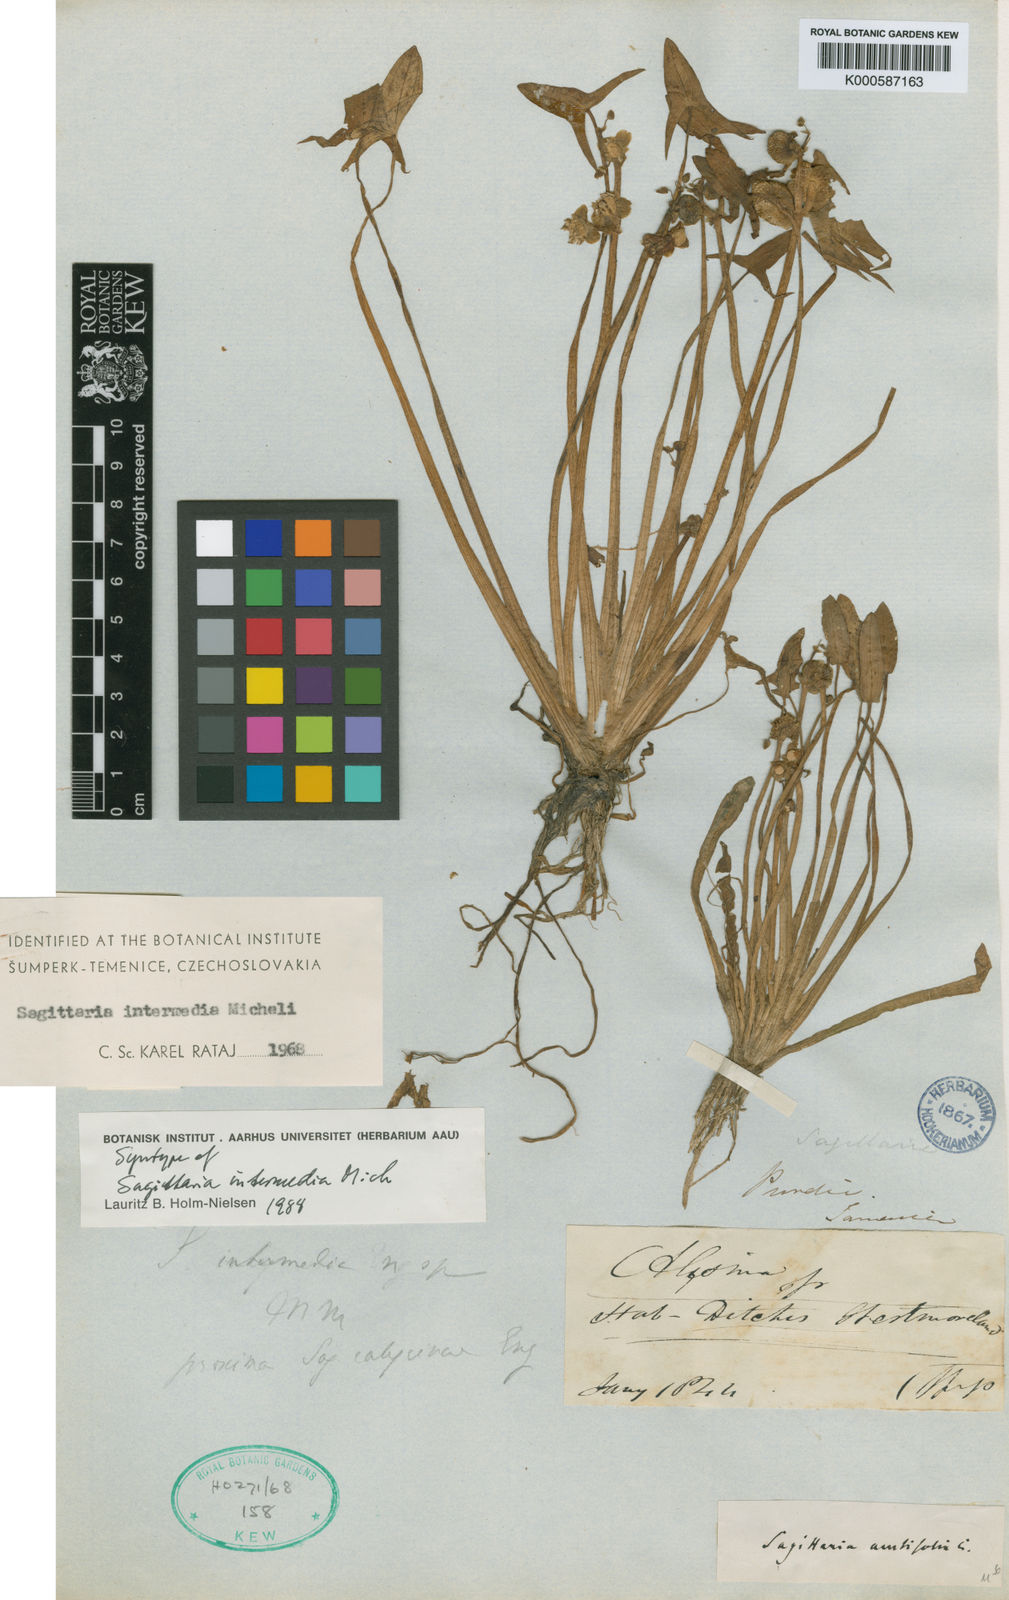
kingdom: Plantae
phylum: Tracheophyta
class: Liliopsida
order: Alismatales
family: Alismataceae
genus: Sagittaria
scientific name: Sagittaria intermedia
